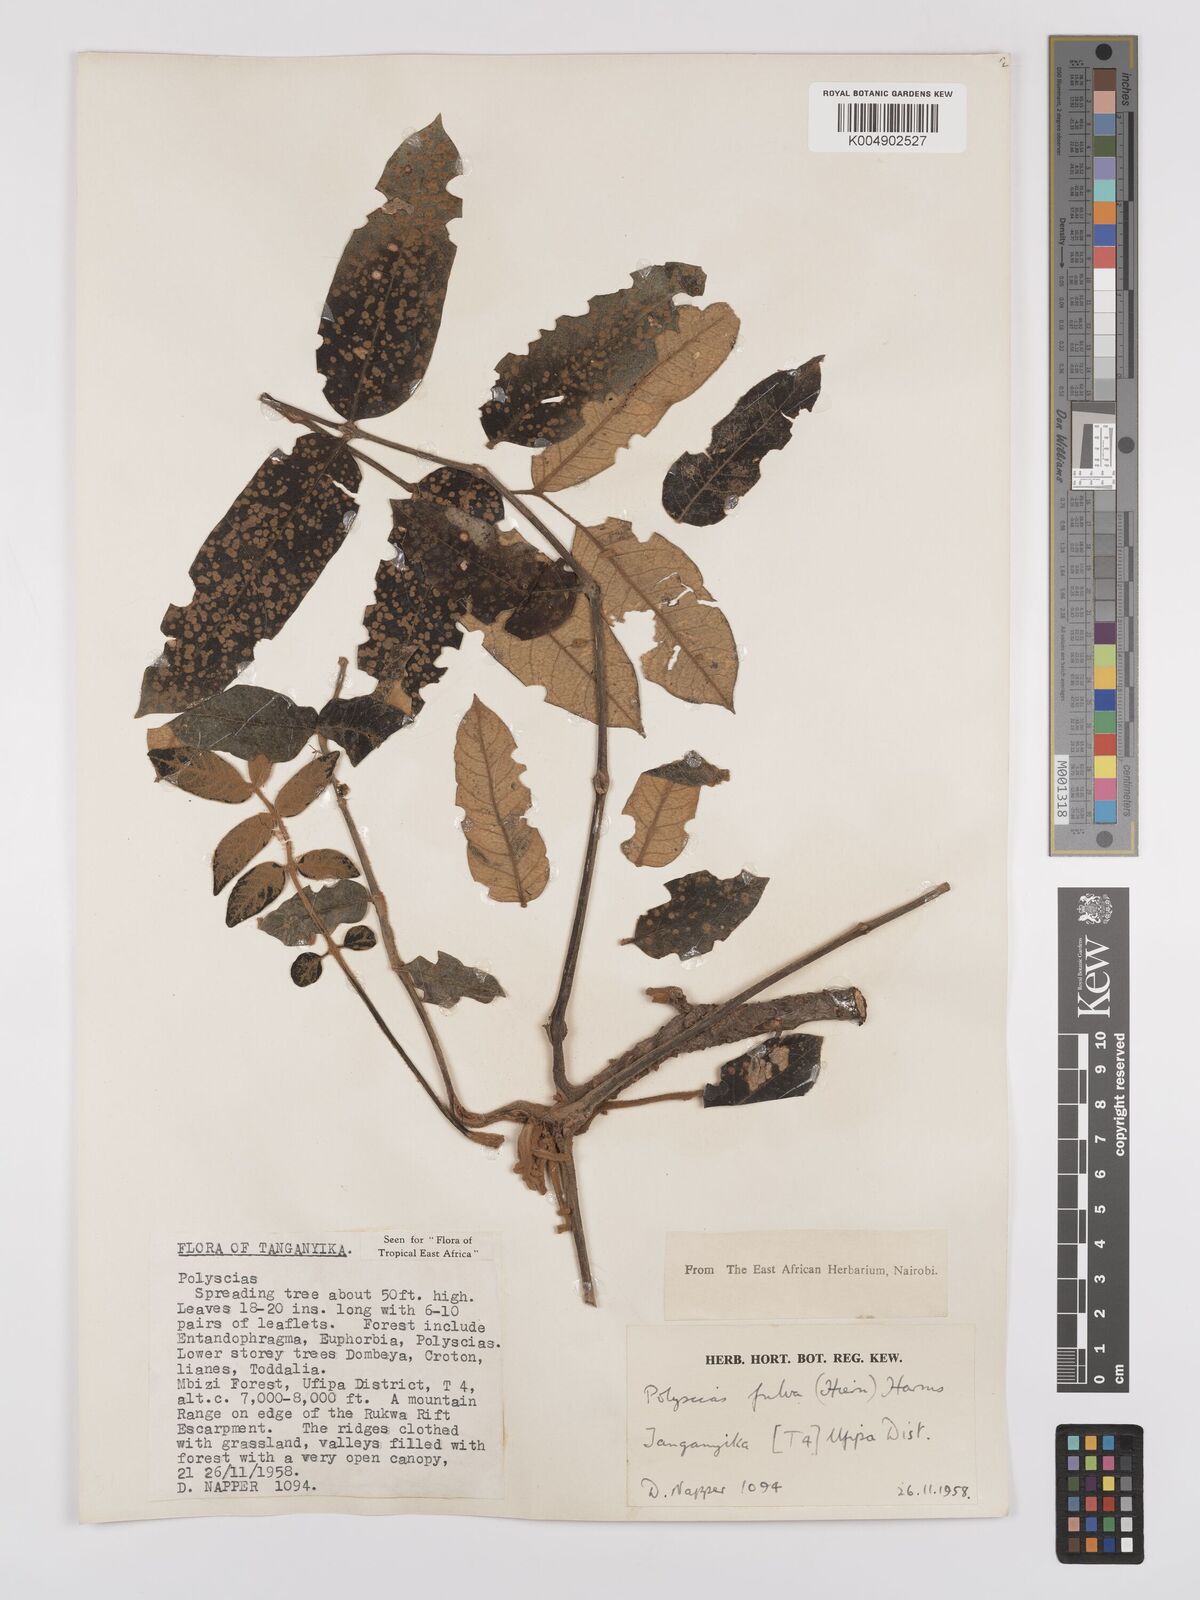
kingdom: Plantae
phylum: Tracheophyta
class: Magnoliopsida
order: Apiales
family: Araliaceae
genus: Polyscias
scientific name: Polyscias fulva
